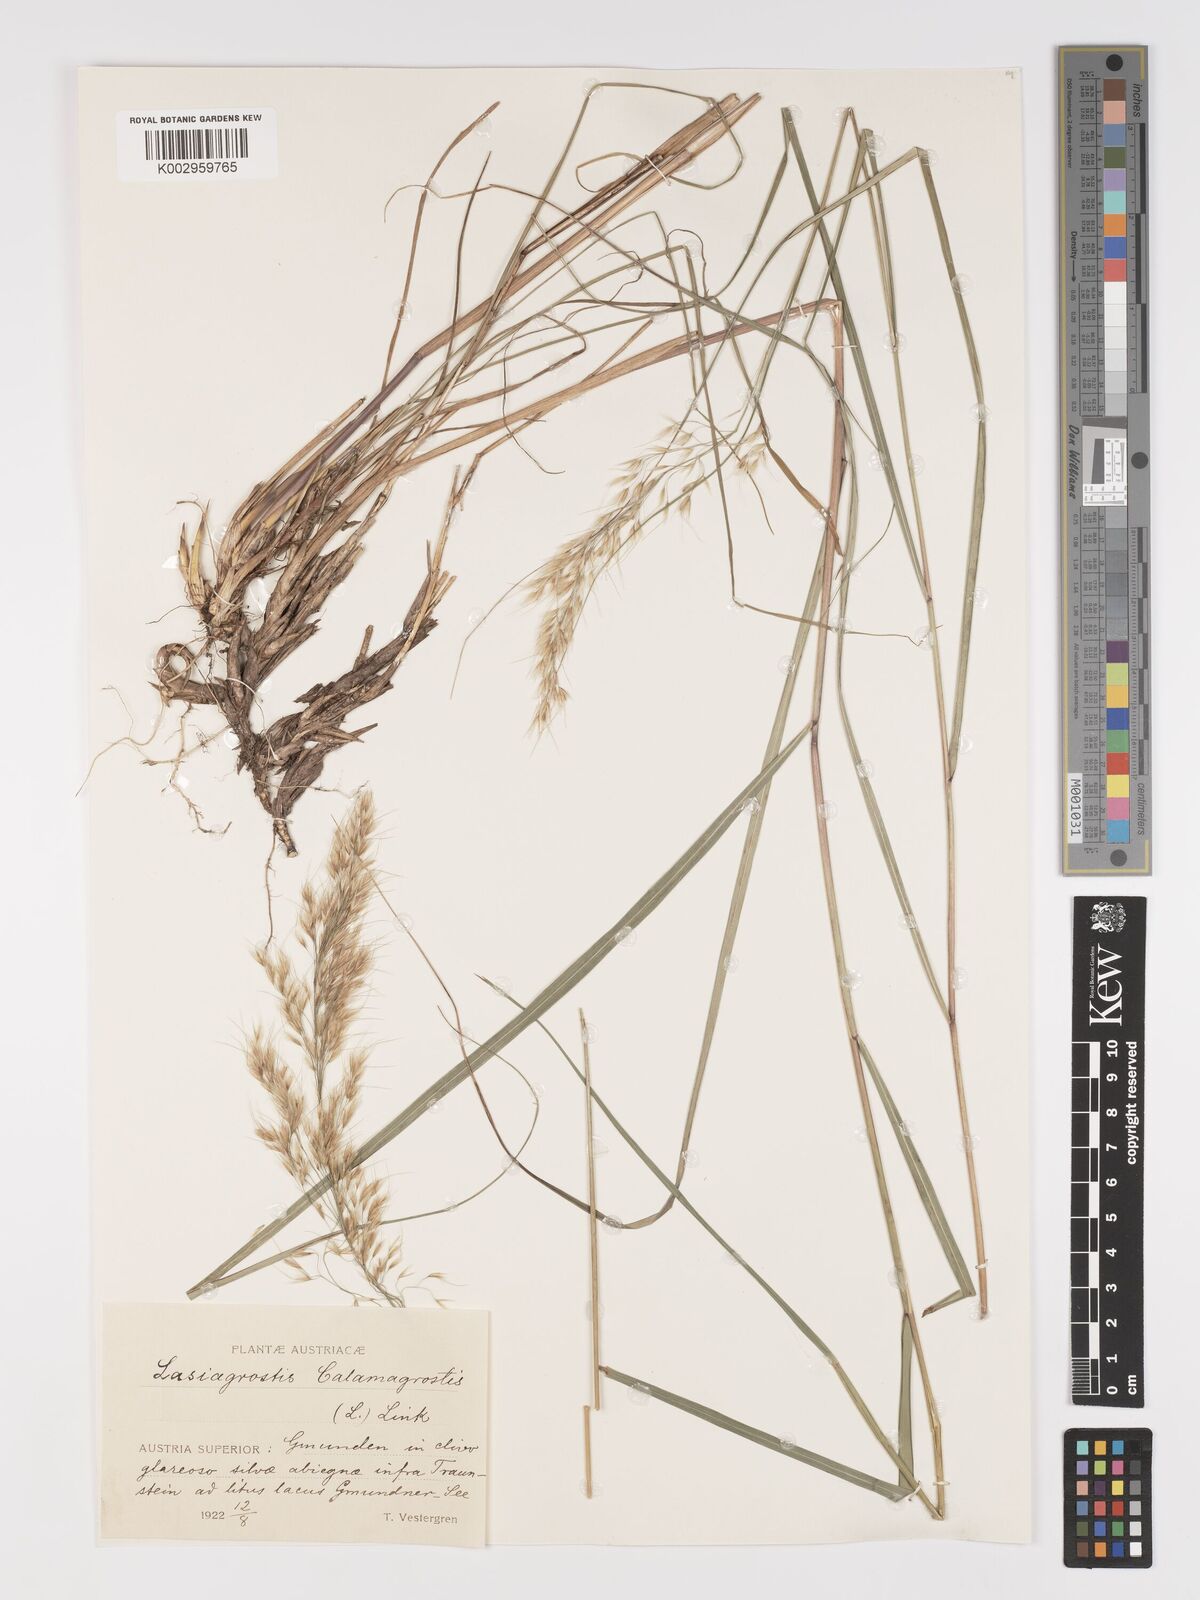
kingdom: Plantae
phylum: Tracheophyta
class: Liliopsida
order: Poales
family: Poaceae
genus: Achnatherum
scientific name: Achnatherum calamagrostis
